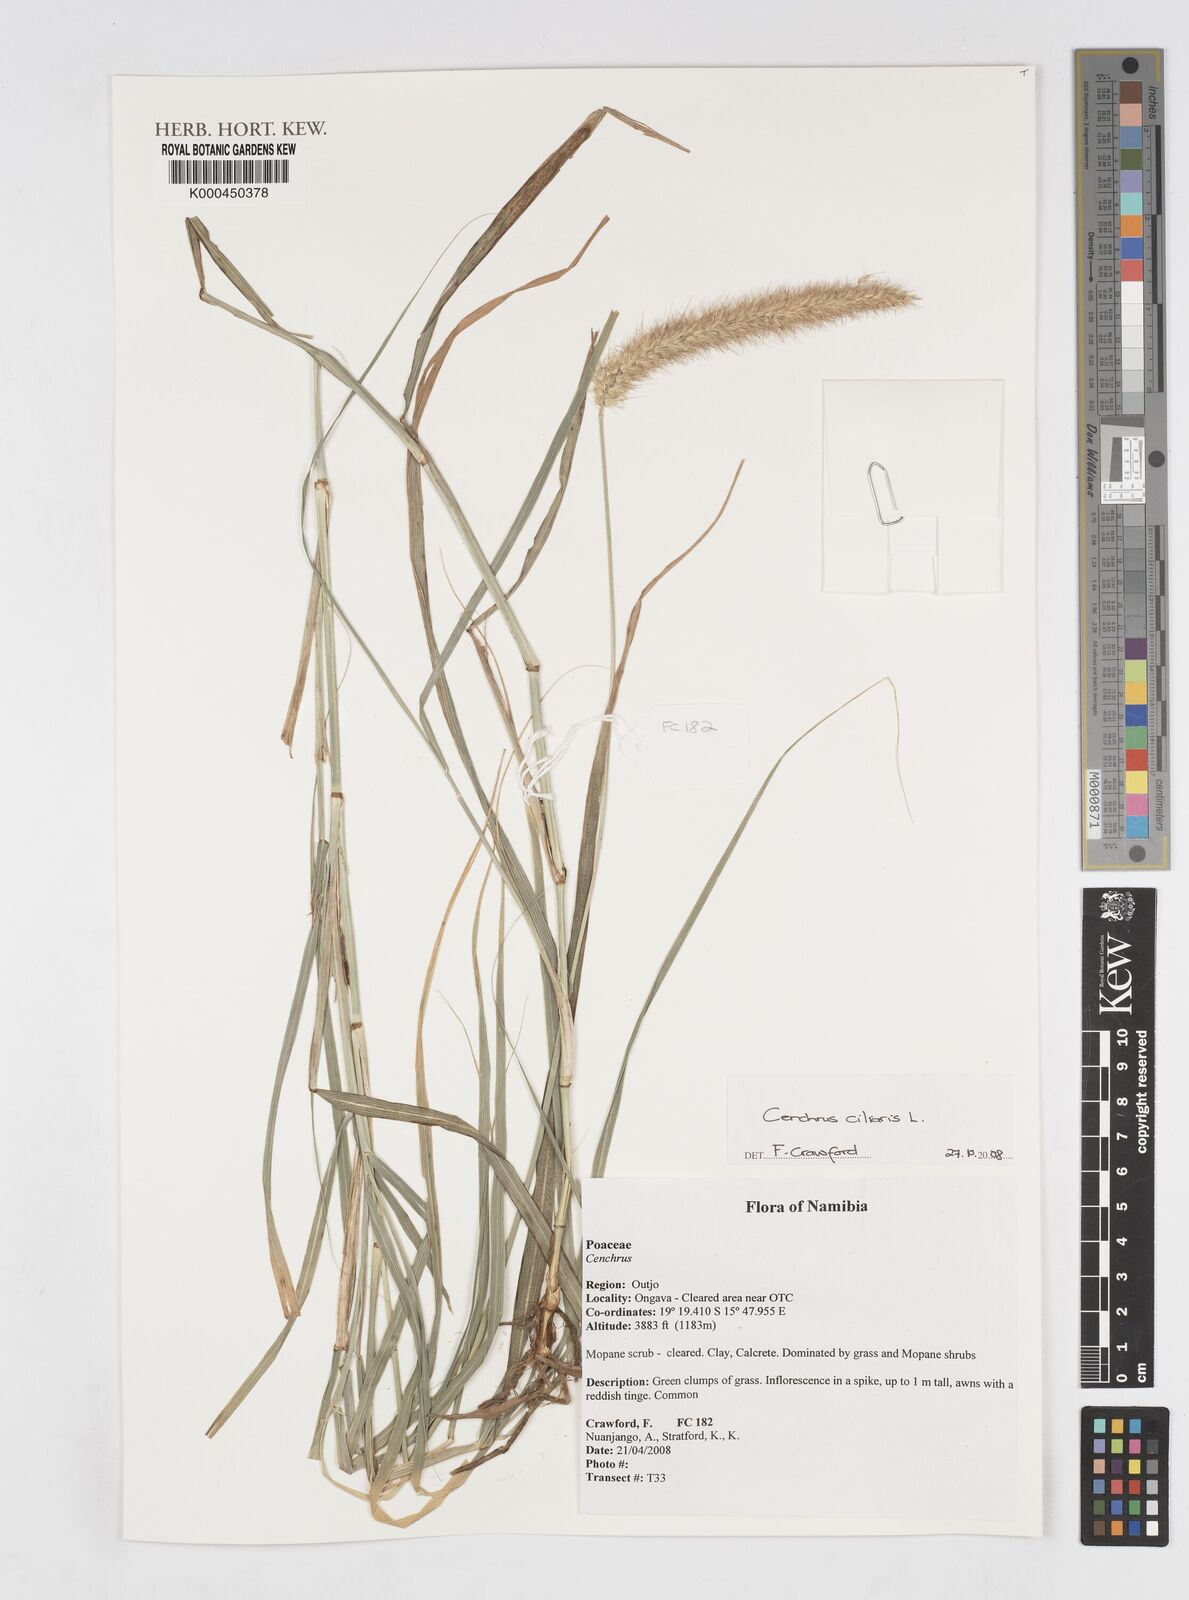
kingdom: Plantae
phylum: Tracheophyta
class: Liliopsida
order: Poales
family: Poaceae
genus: Cenchrus
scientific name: Cenchrus ciliaris
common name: Buffelgrass
